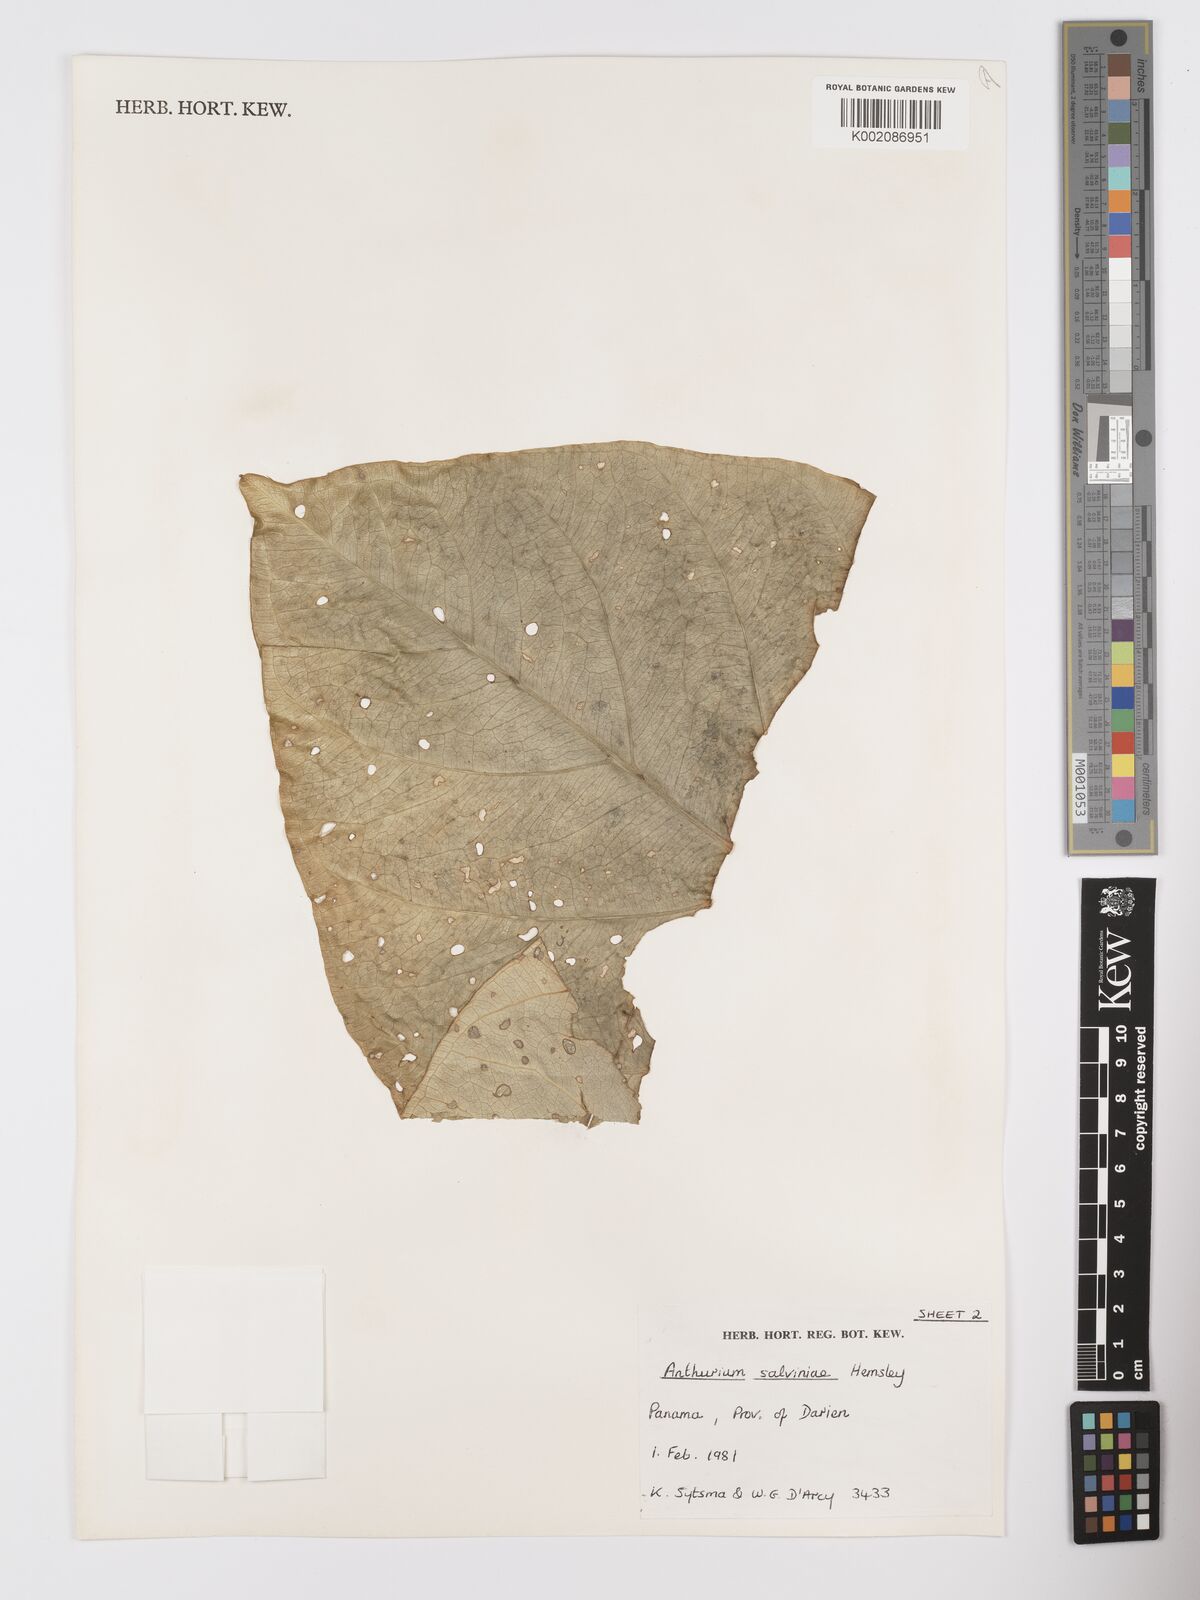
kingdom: Plantae
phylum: Tracheophyta
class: Liliopsida
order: Alismatales
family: Araceae
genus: Anthurium
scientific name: Anthurium salvinii
